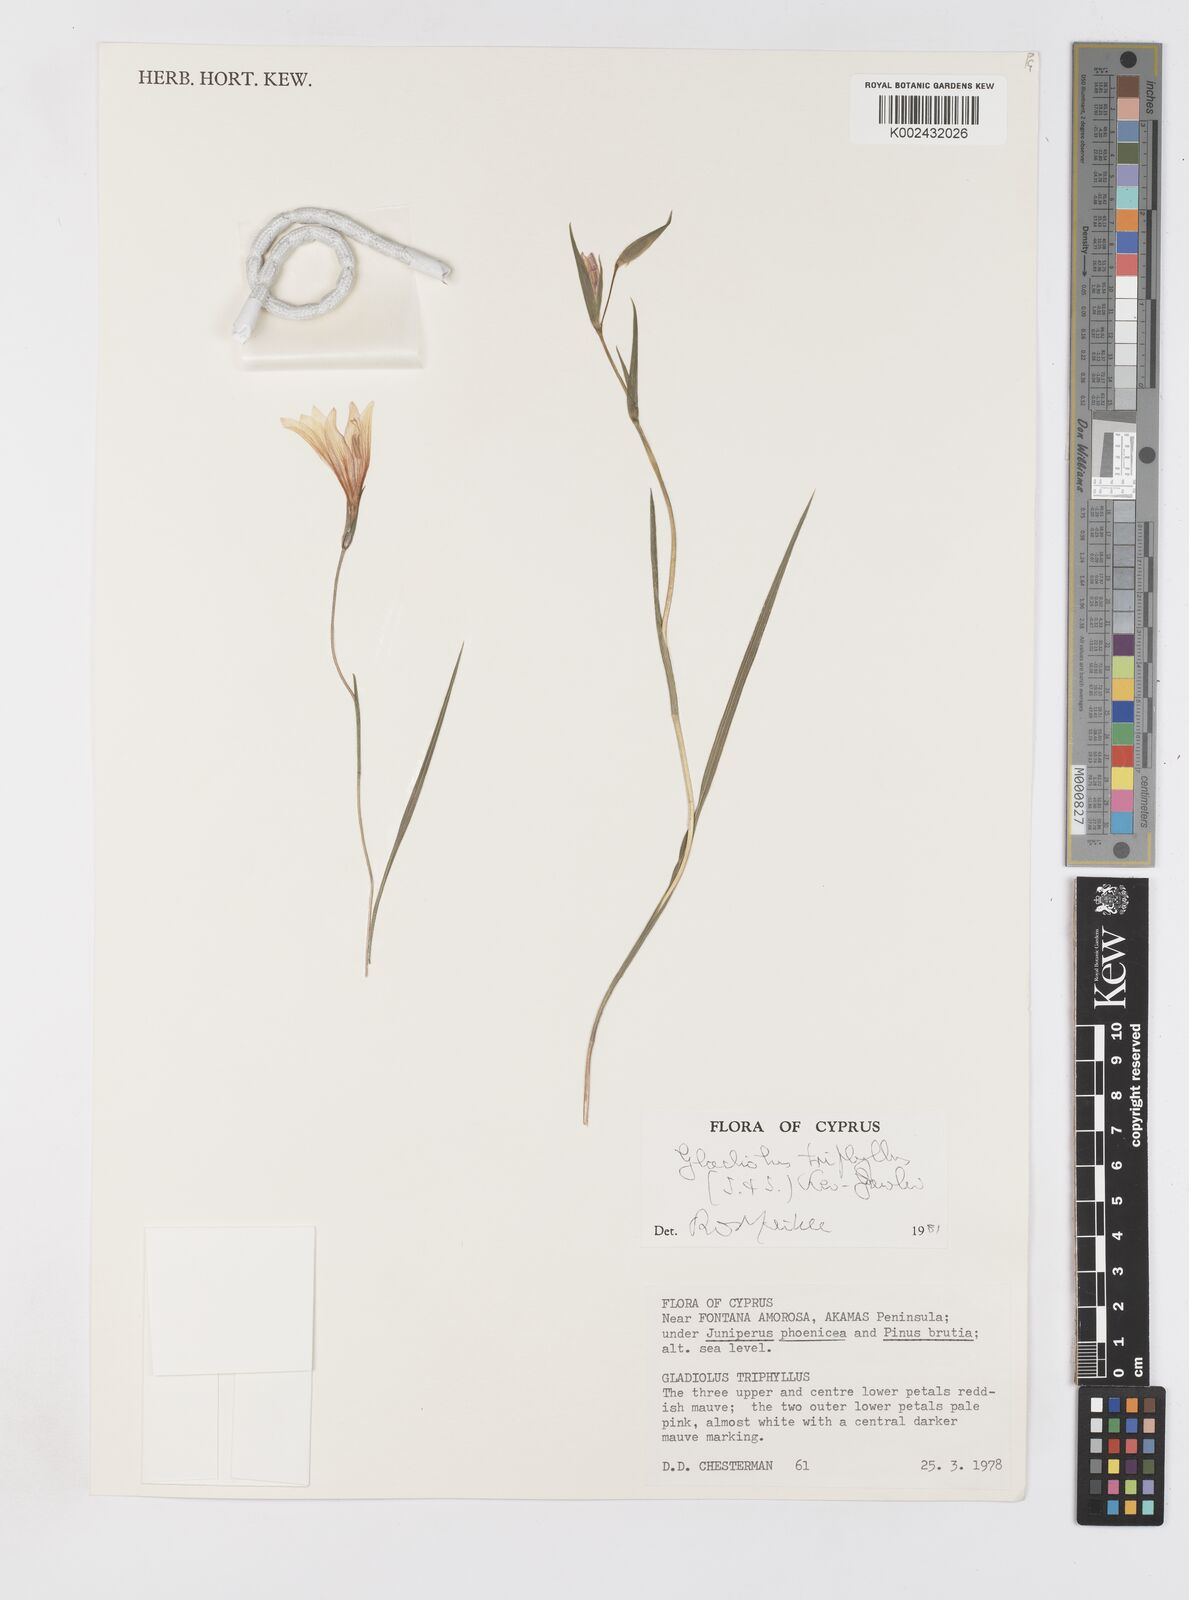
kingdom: Plantae
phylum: Tracheophyta
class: Liliopsida
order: Asparagales
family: Iridaceae
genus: Gladiolus
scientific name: Gladiolus triphyllus
